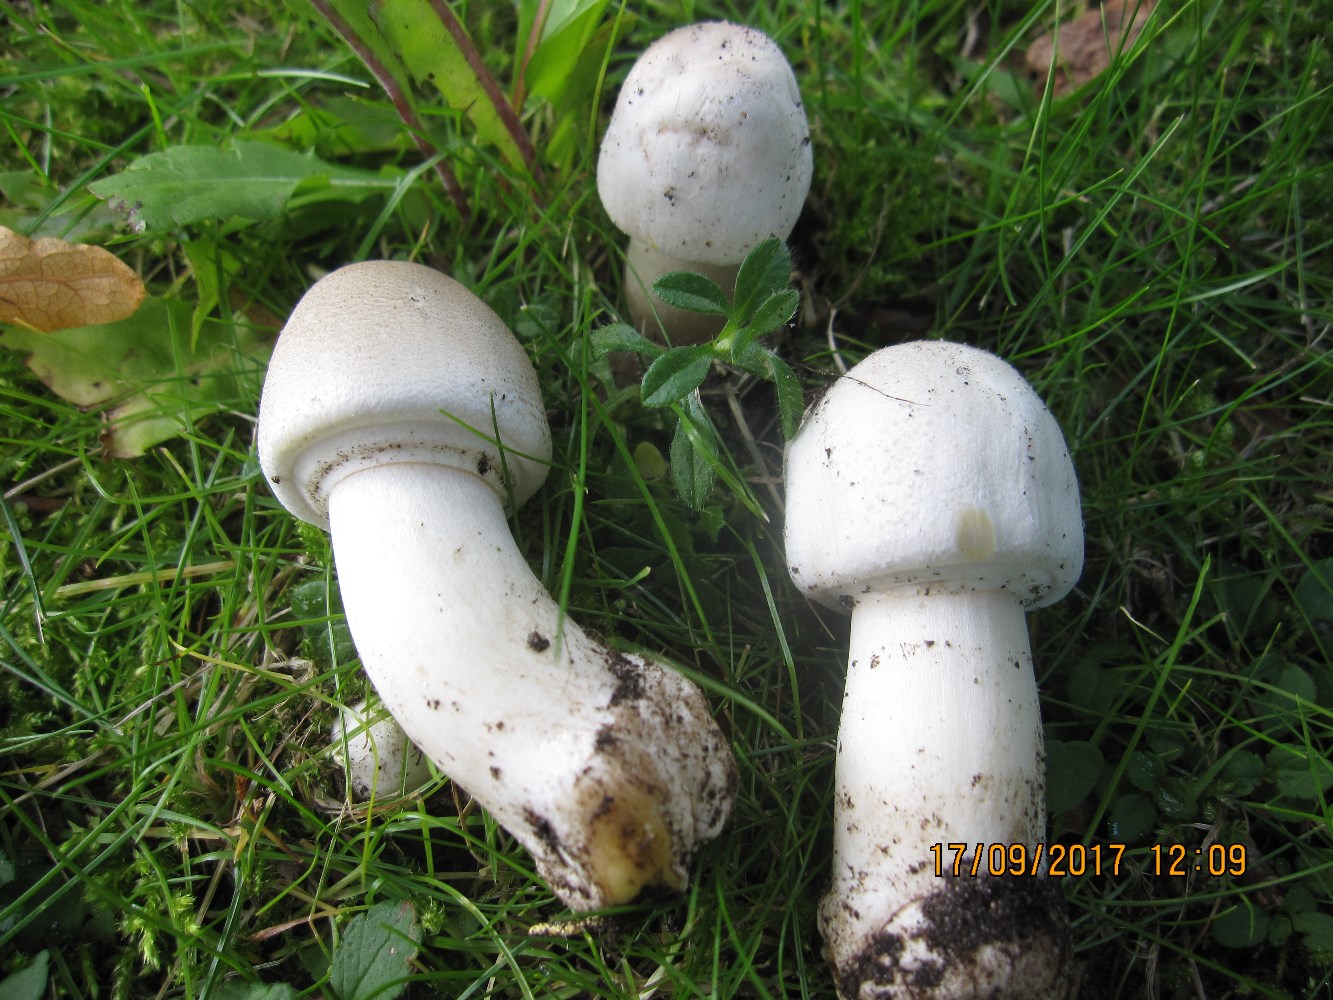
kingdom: Fungi
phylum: Basidiomycota
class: Agaricomycetes
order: Agaricales
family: Agaricaceae
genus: Agaricus
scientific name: Agaricus xanthodermus
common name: karbol-champignon
